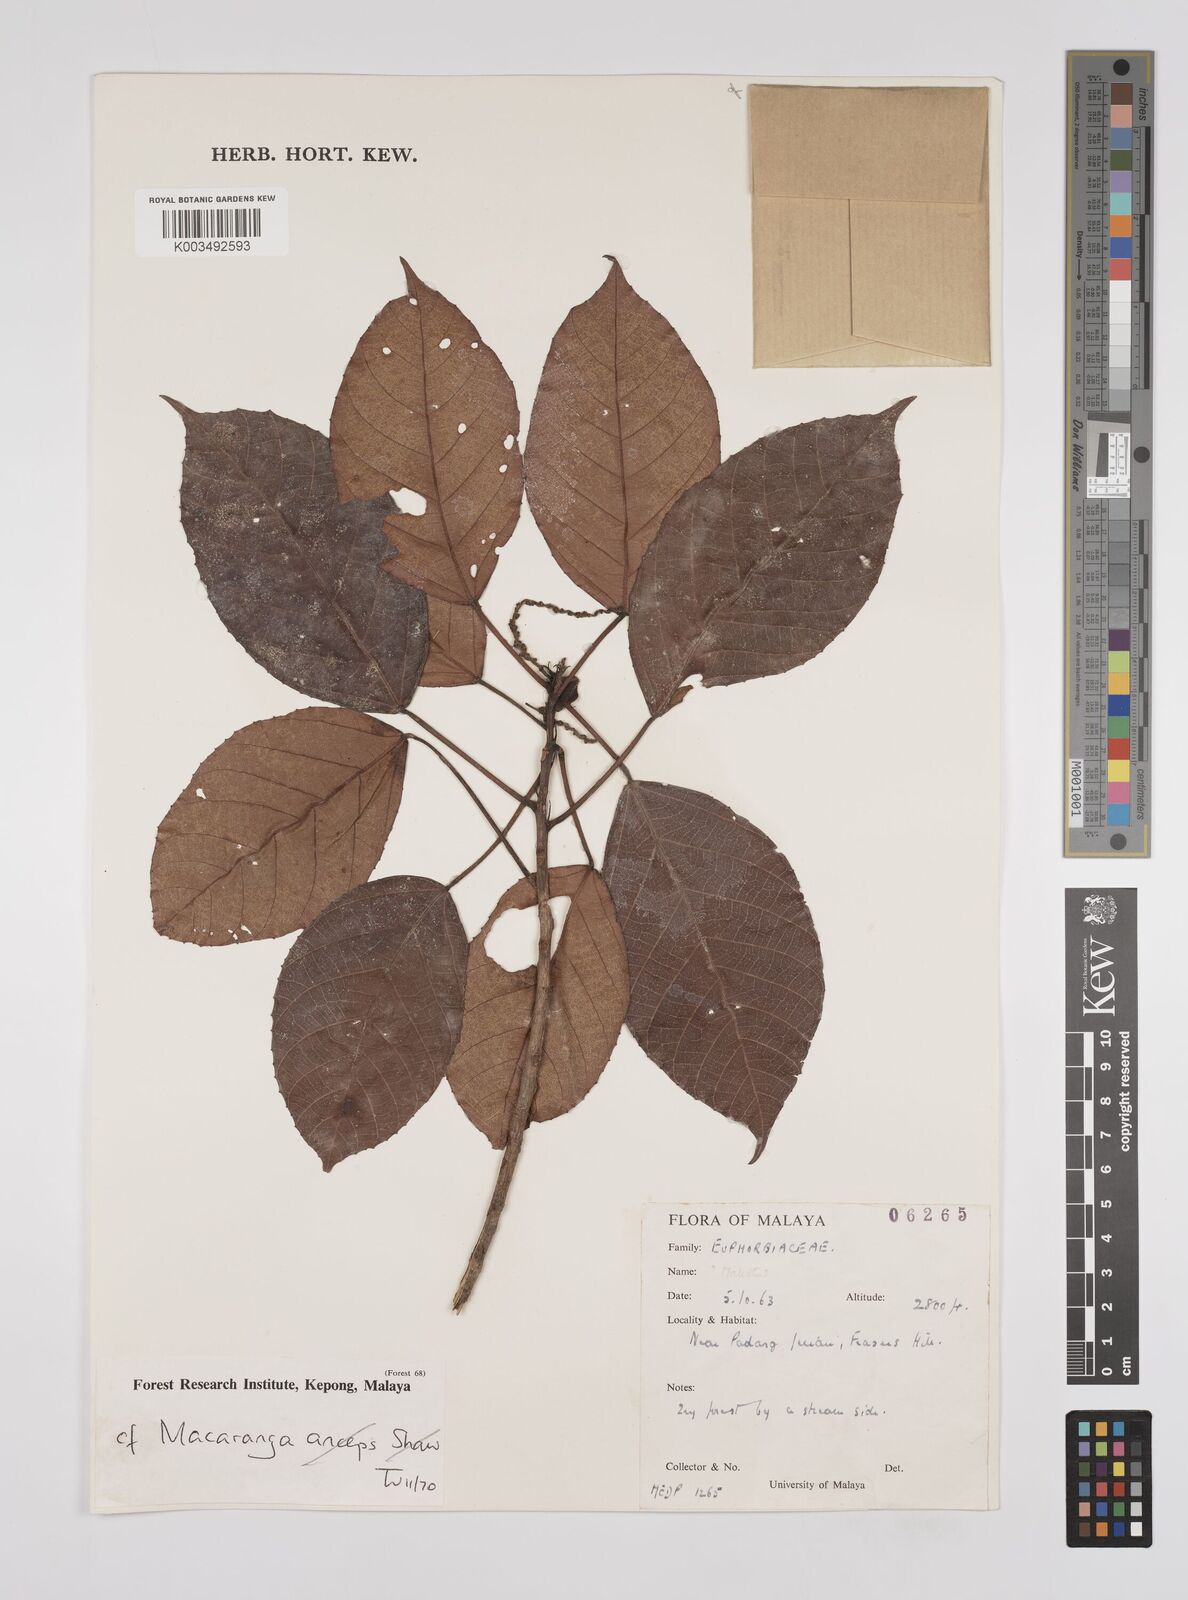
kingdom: Plantae
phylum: Tracheophyta
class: Magnoliopsida
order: Malpighiales
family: Euphorbiaceae
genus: Macaranga
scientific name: Macaranga andamanica
